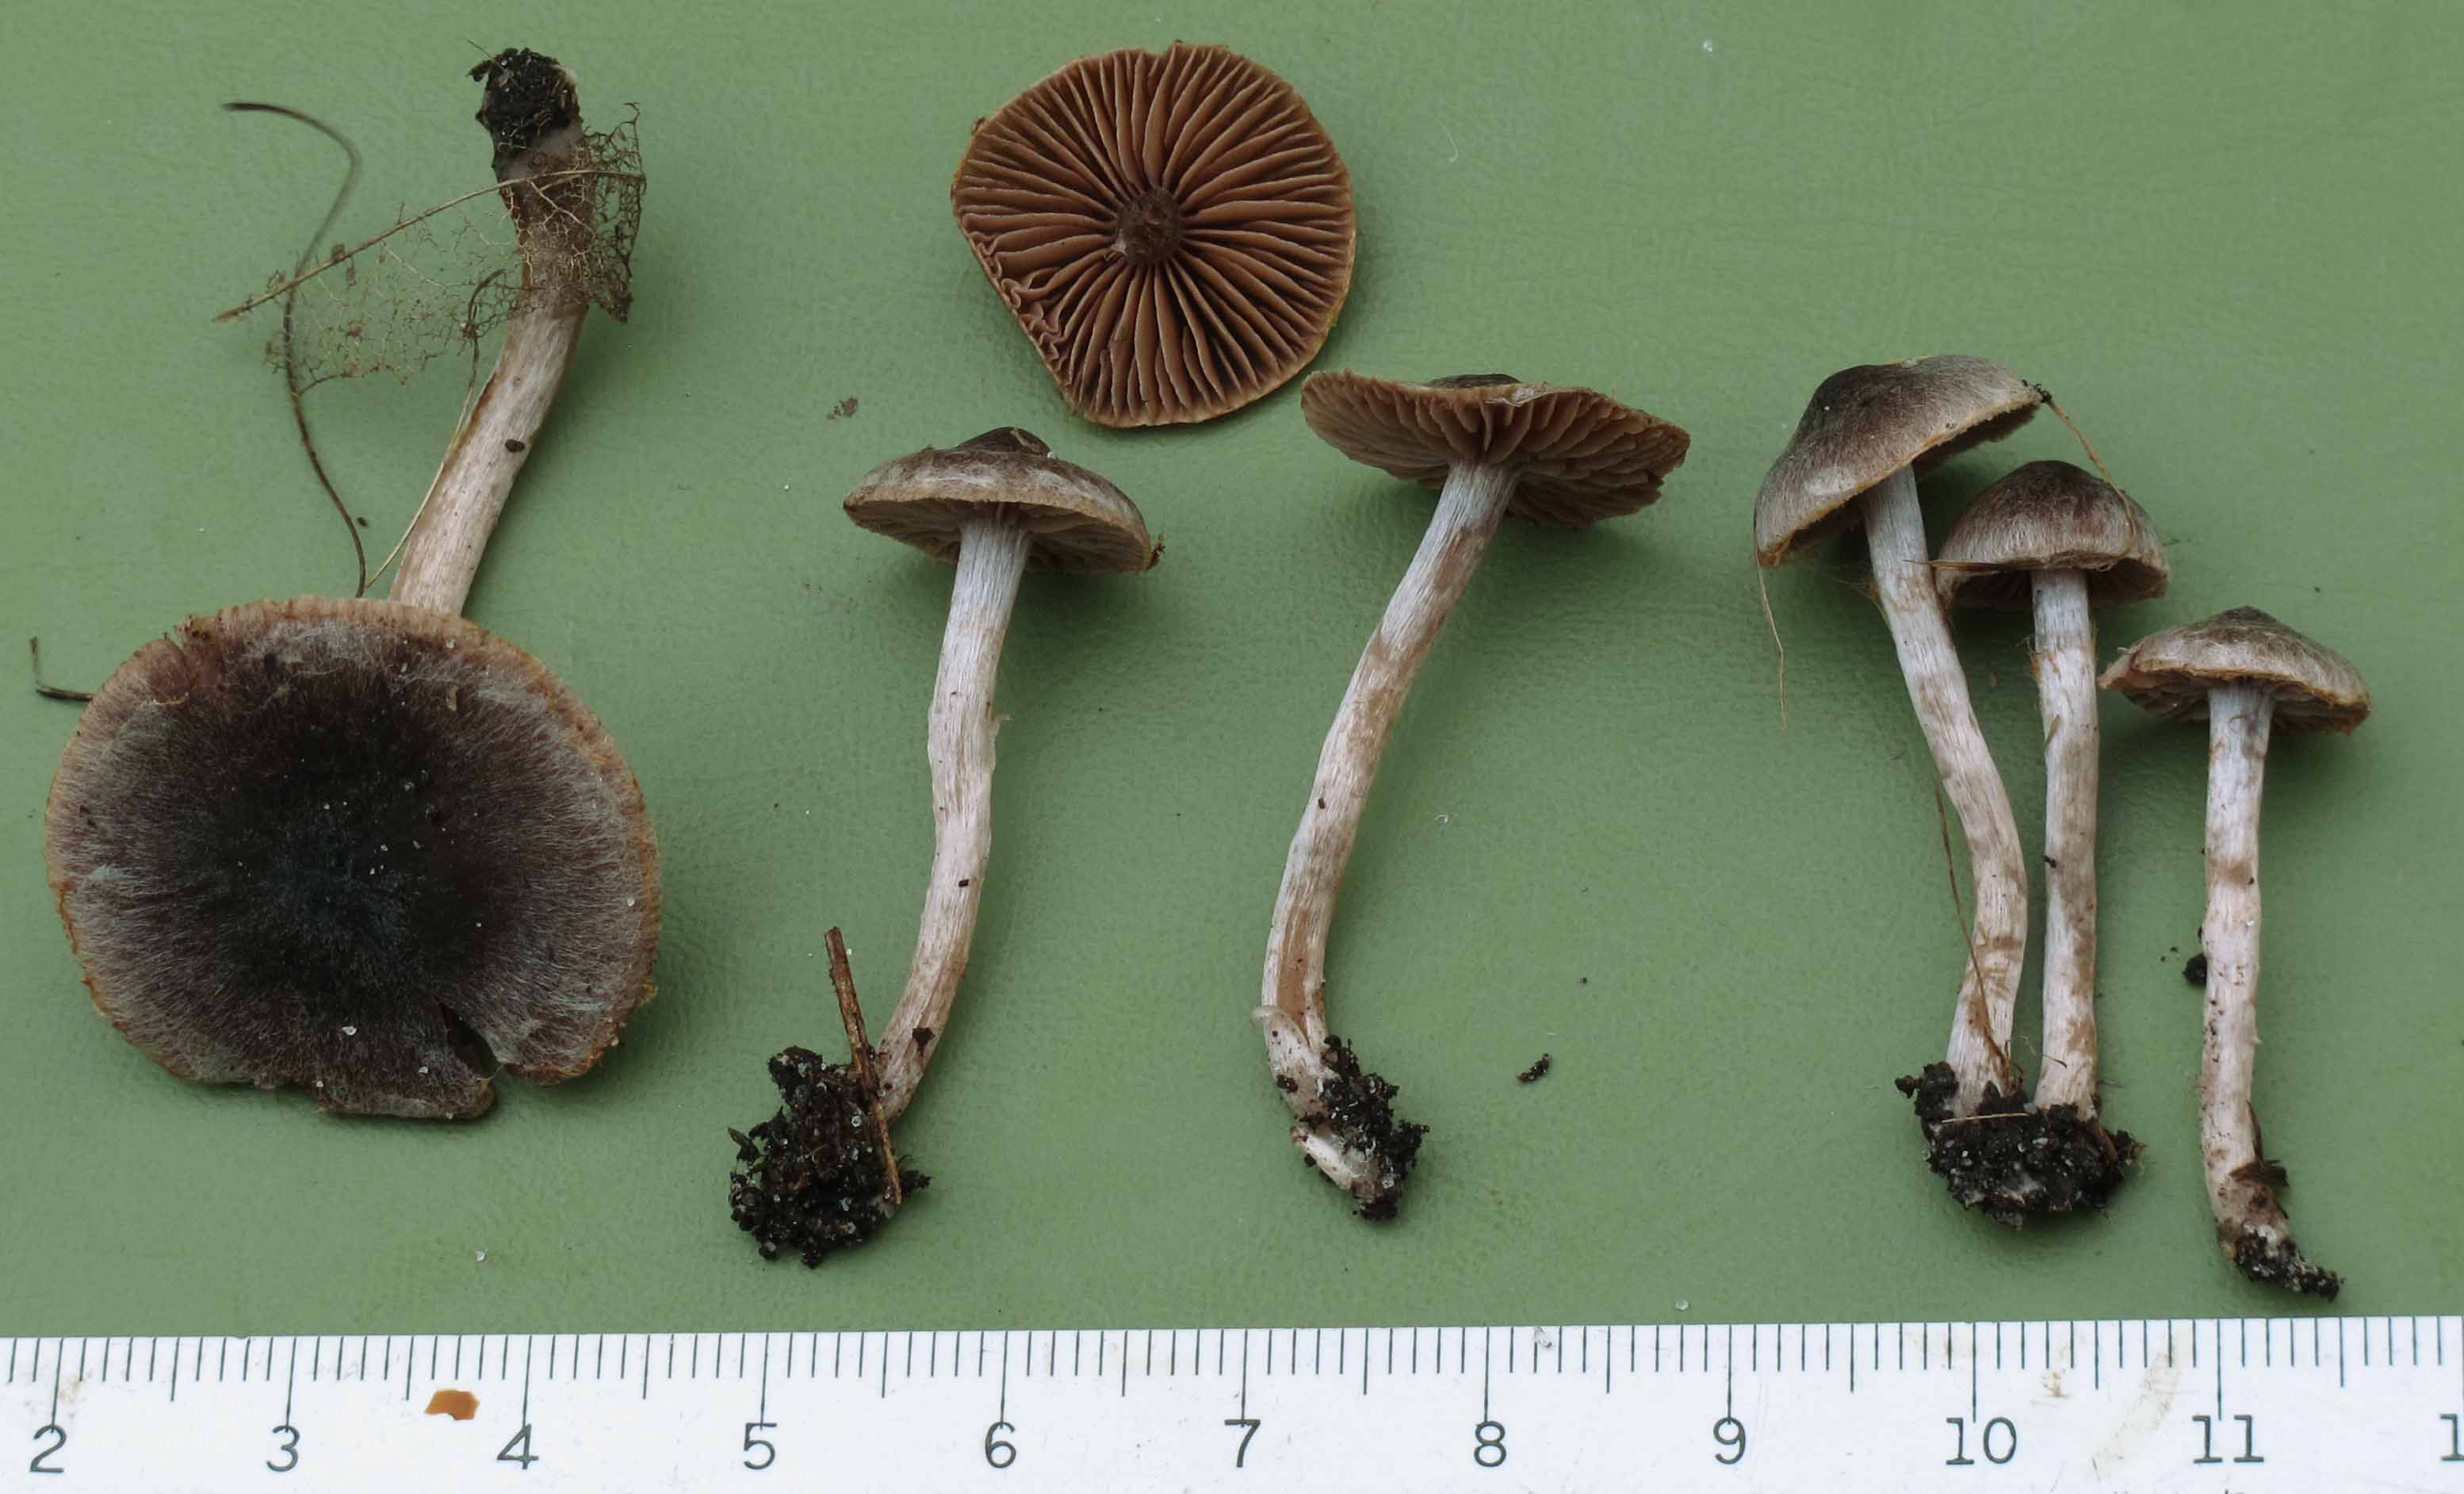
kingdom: Fungi
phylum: Basidiomycota
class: Agaricomycetes
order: Agaricales
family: Cortinariaceae
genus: Cortinarius
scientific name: Cortinarius decipiens
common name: mørkpuklet slørhat
